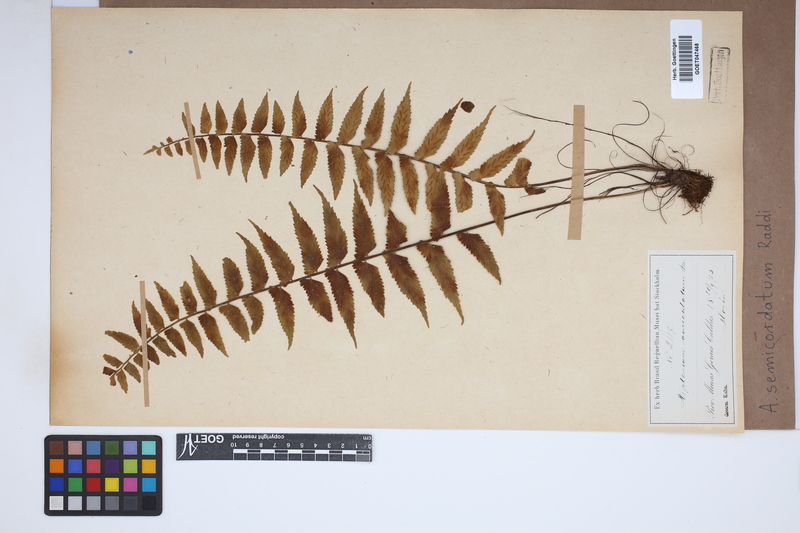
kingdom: Plantae
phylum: Tracheophyta
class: Polypodiopsida
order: Polypodiales
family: Aspleniaceae
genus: Asplenium
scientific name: Asplenium auriculatum
